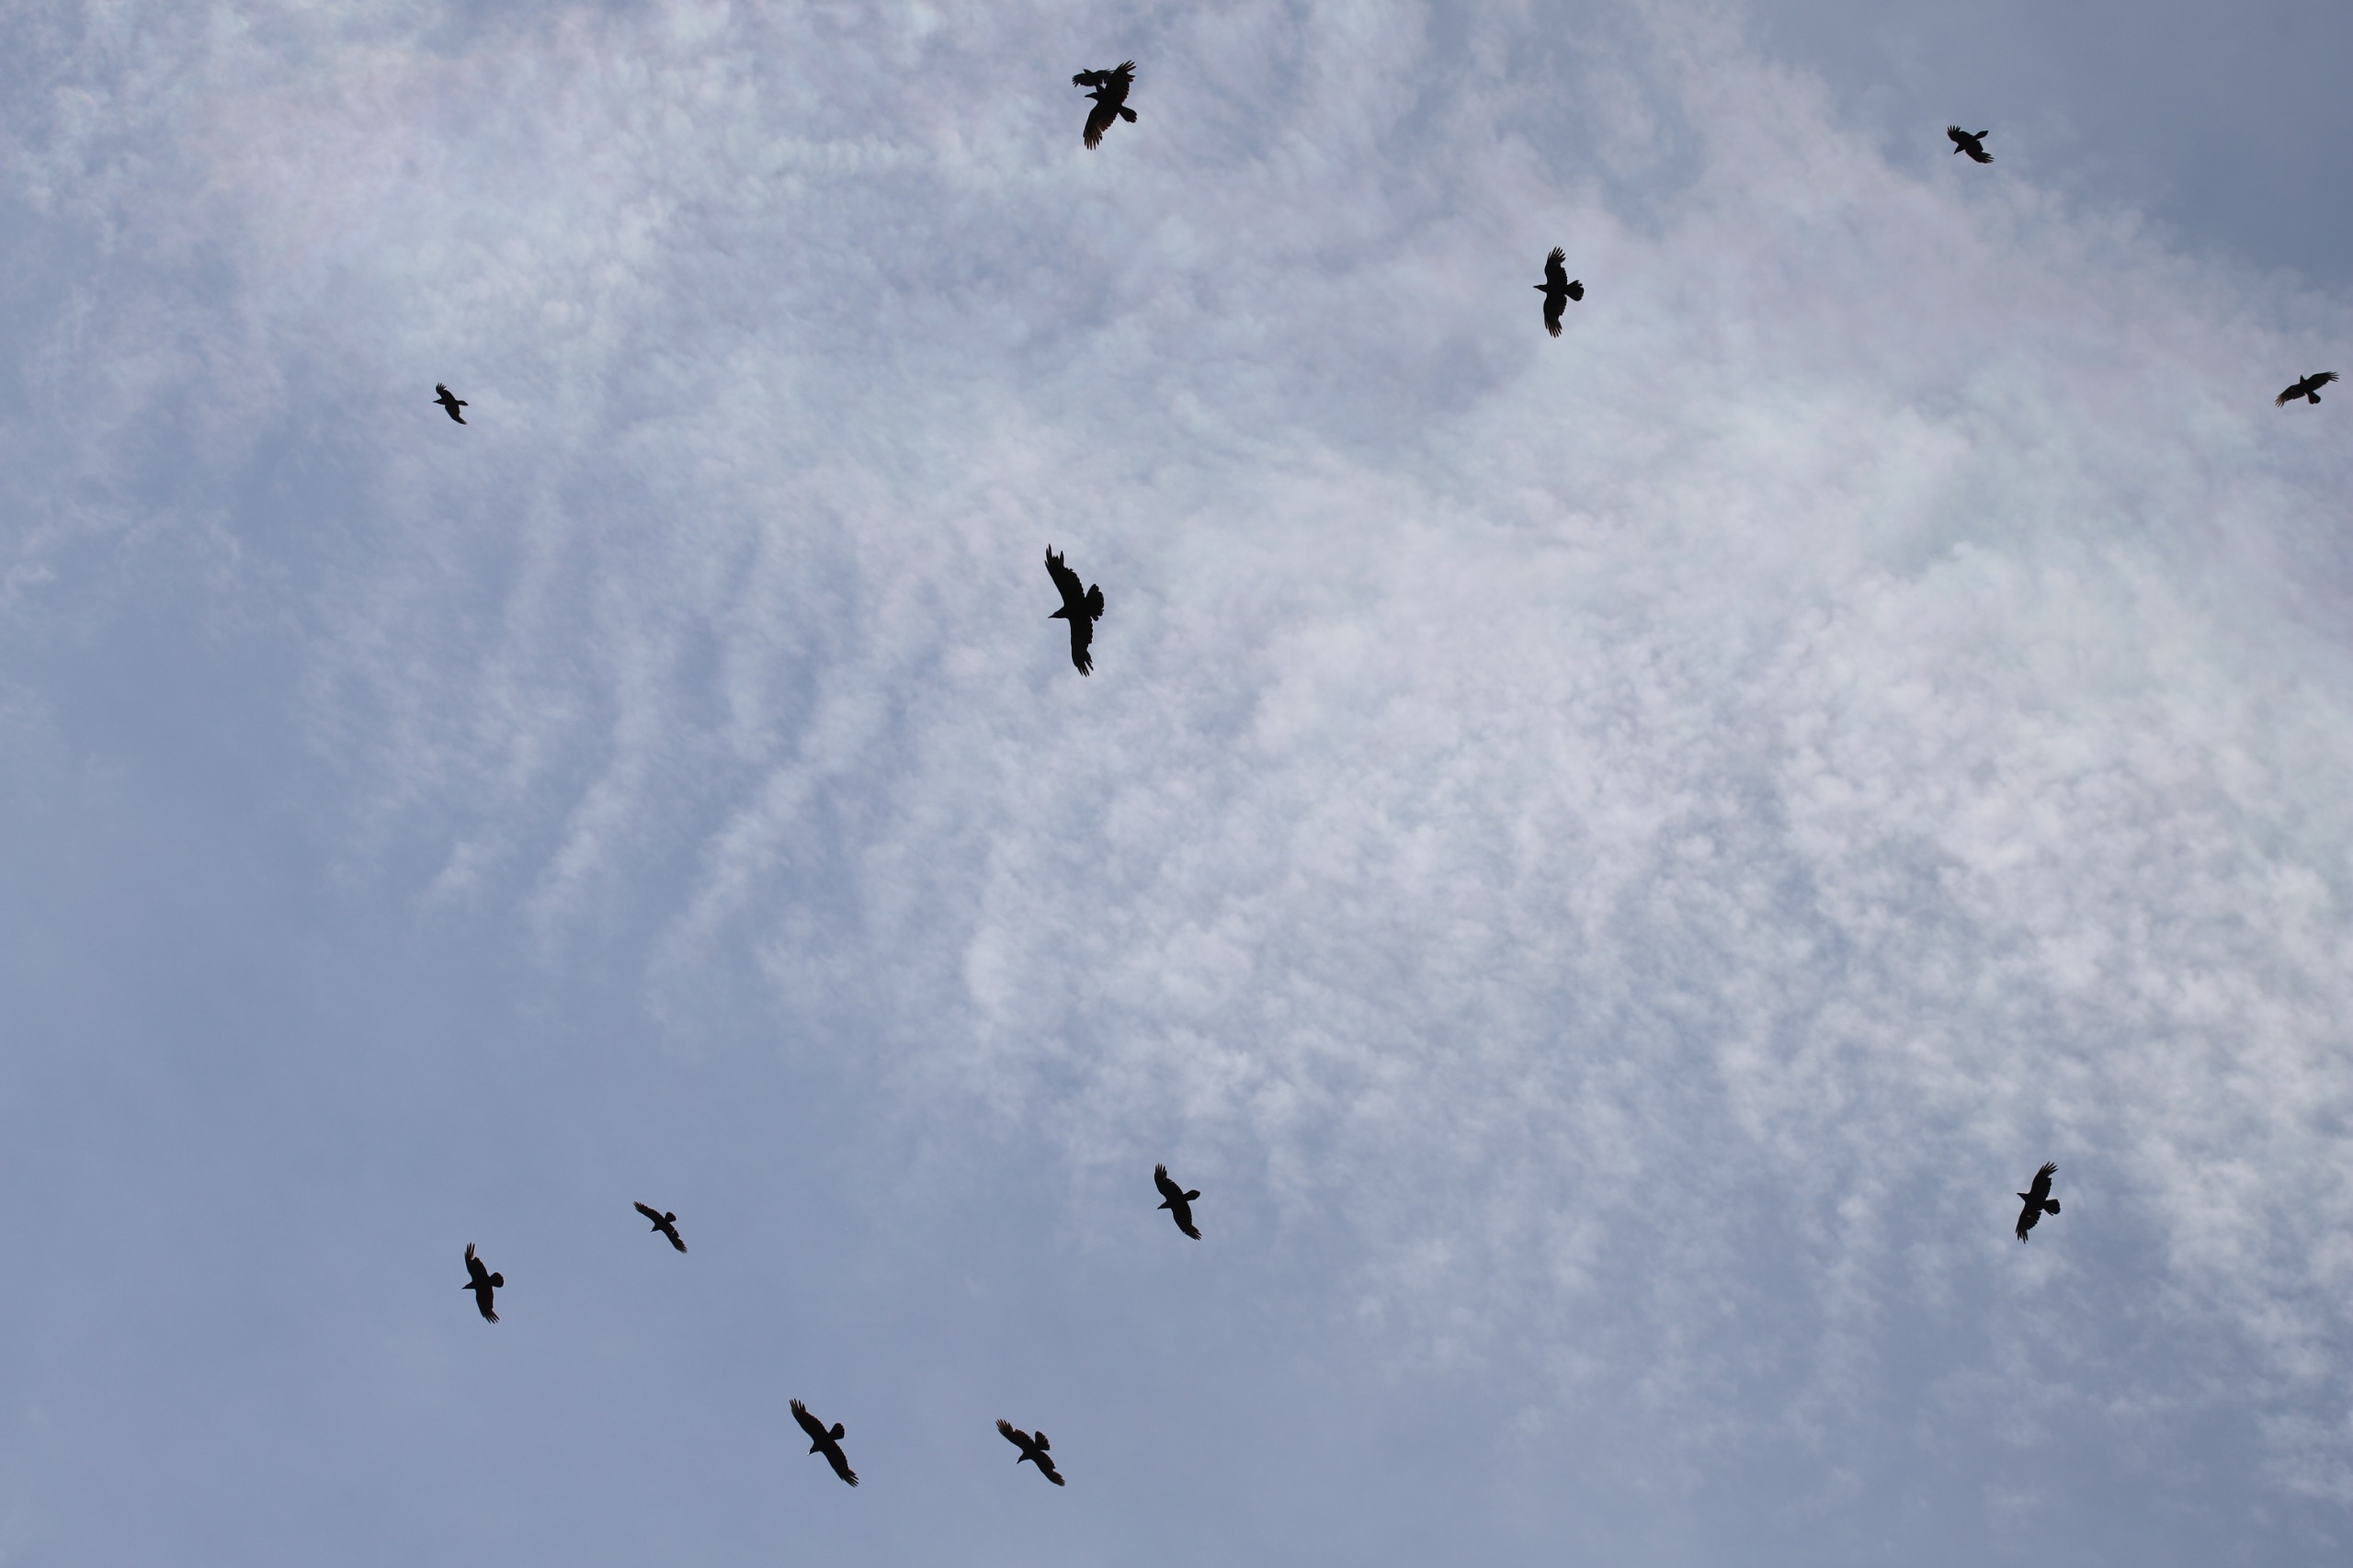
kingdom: Animalia
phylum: Chordata
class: Aves
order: Passeriformes
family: Corvidae
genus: Corvus
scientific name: Corvus corax
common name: Ravn
